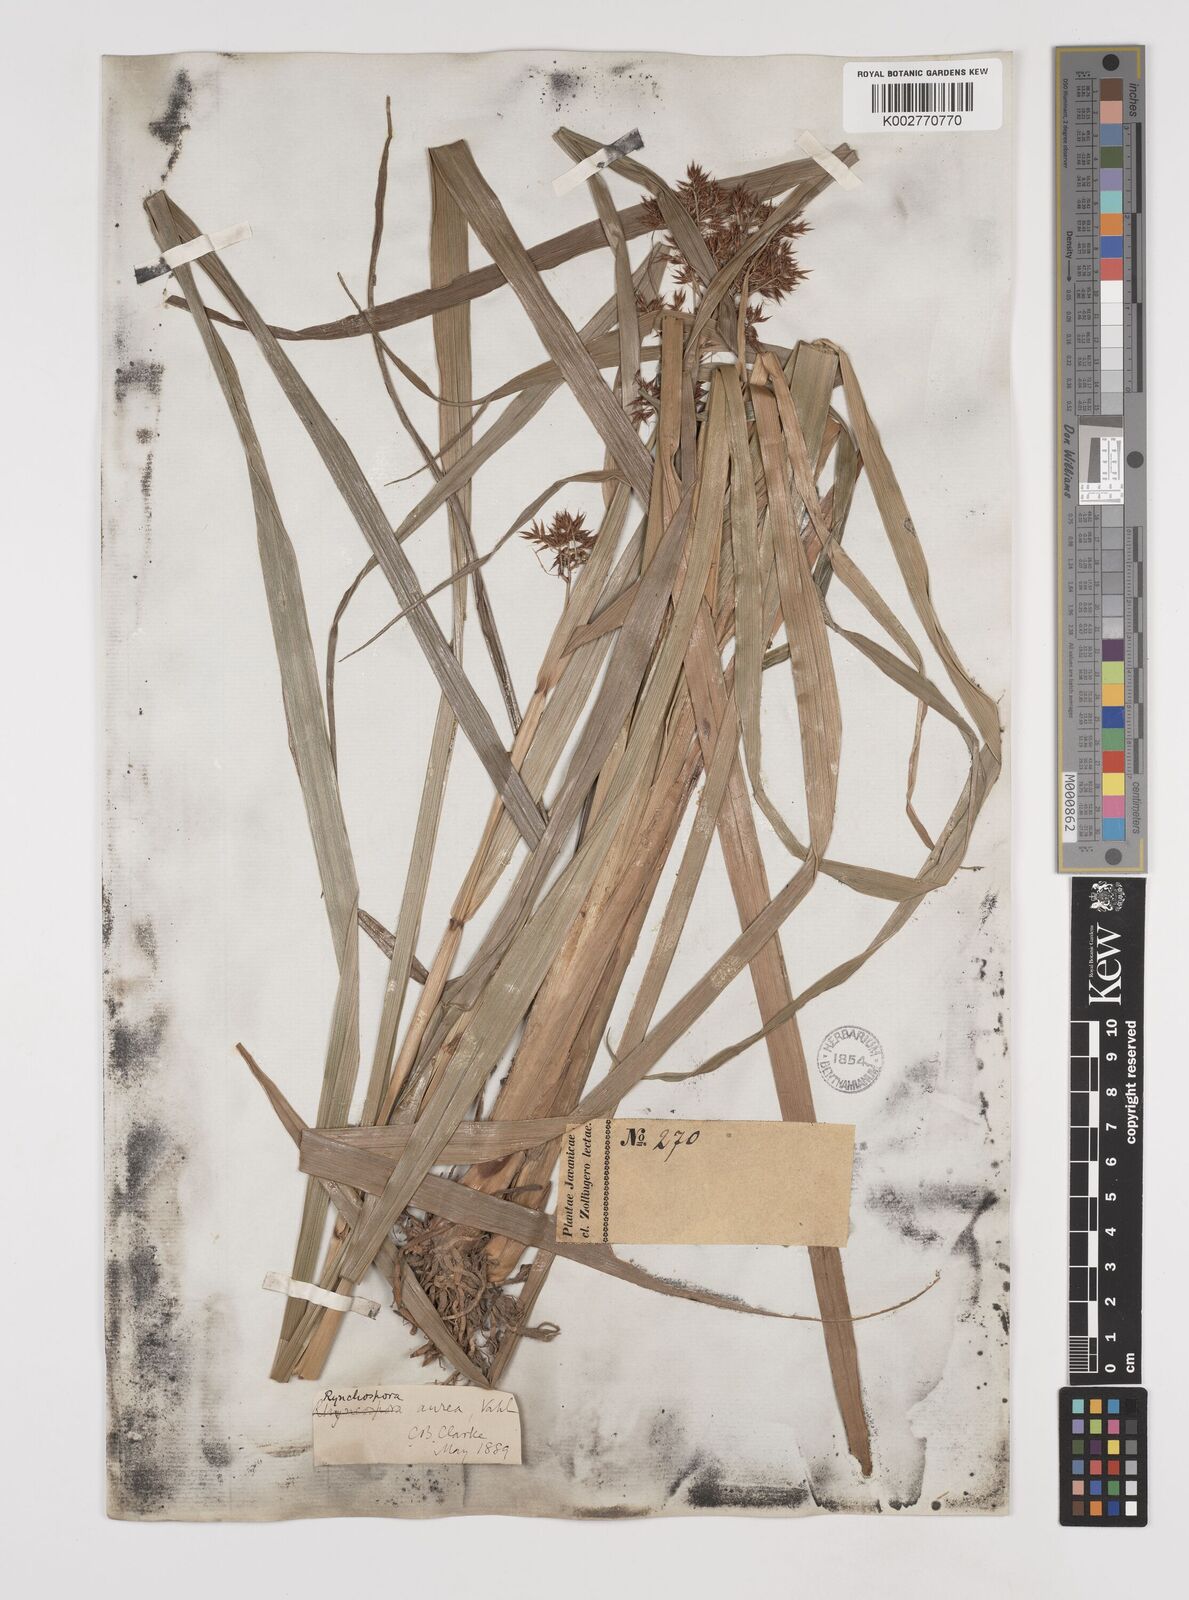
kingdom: Plantae
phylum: Tracheophyta
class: Liliopsida
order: Poales
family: Cyperaceae
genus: Rhynchospora
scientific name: Rhynchospora corymbosa
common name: Golden beak sedge
